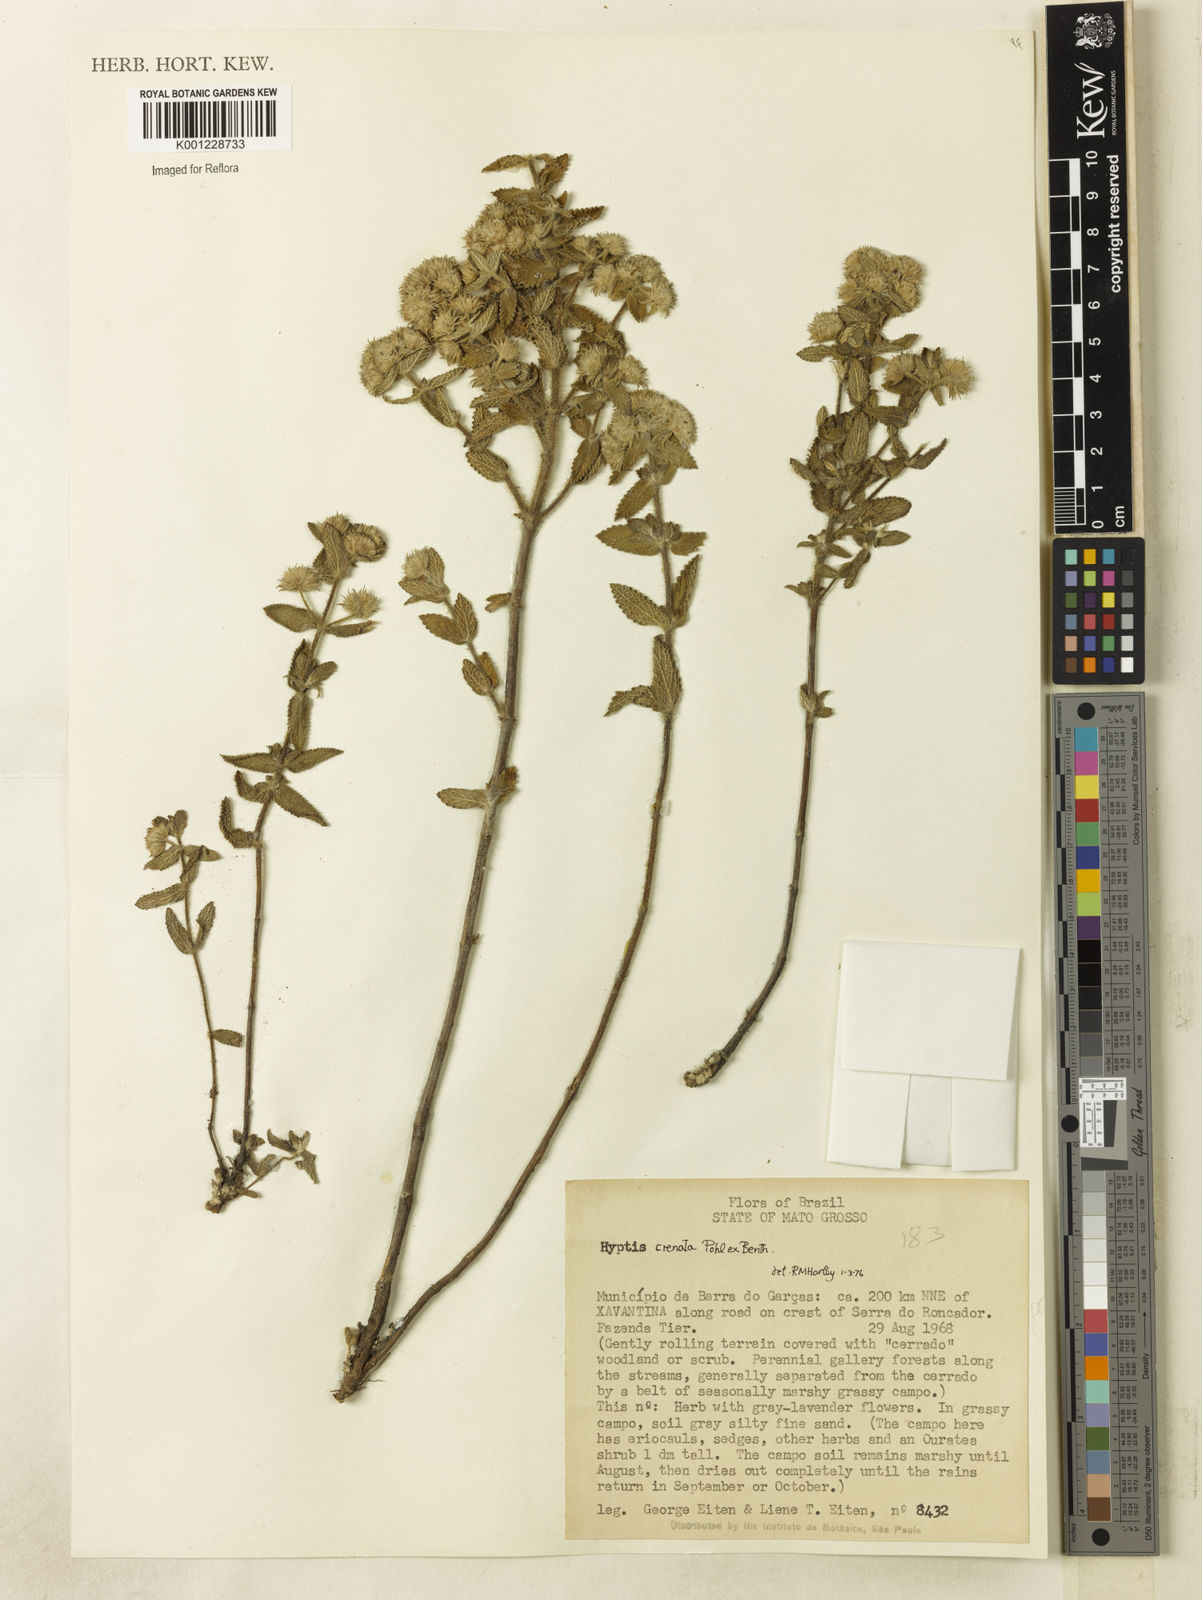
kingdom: Plantae
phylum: Tracheophyta
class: Magnoliopsida
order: Lamiales
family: Lamiaceae
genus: Hyptis
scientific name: Hyptis crenata
